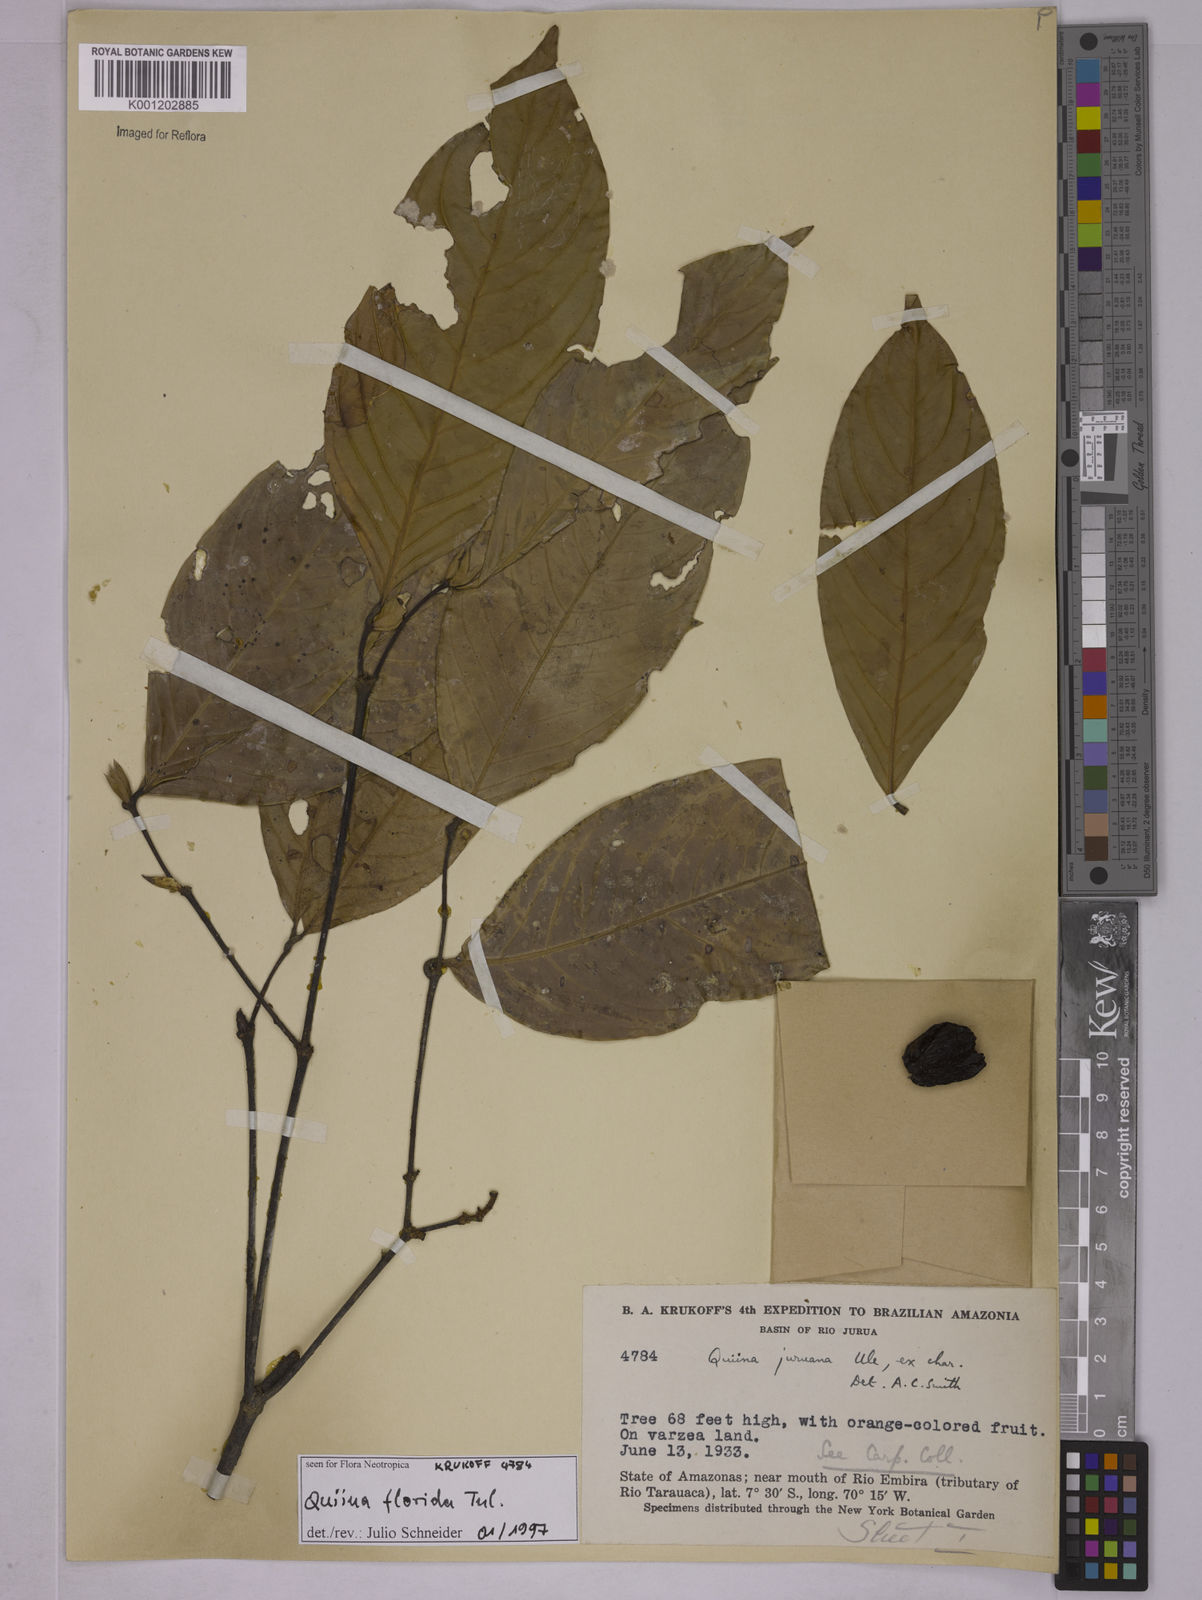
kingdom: Plantae
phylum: Tracheophyta
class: Magnoliopsida
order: Malpighiales
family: Quiinaceae
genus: Quiina
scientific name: Quiina florida
